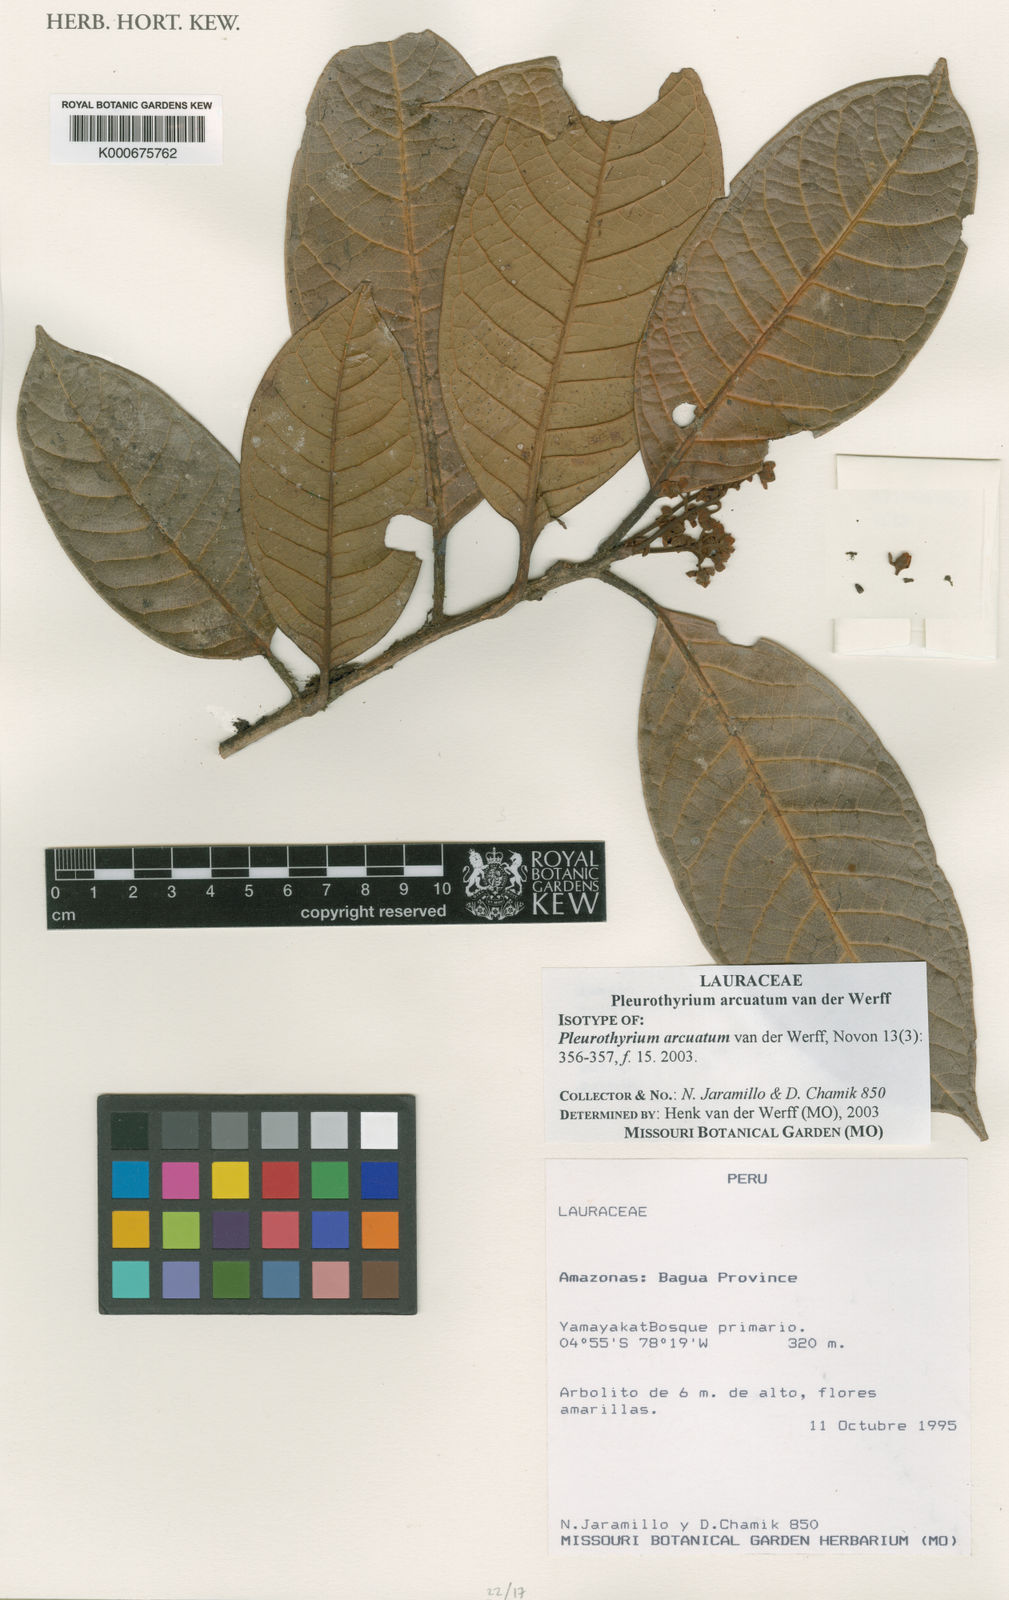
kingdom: Plantae
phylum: Tracheophyta
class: Magnoliopsida
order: Laurales
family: Lauraceae
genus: Pleurothyrium
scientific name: Pleurothyrium arcuatum
